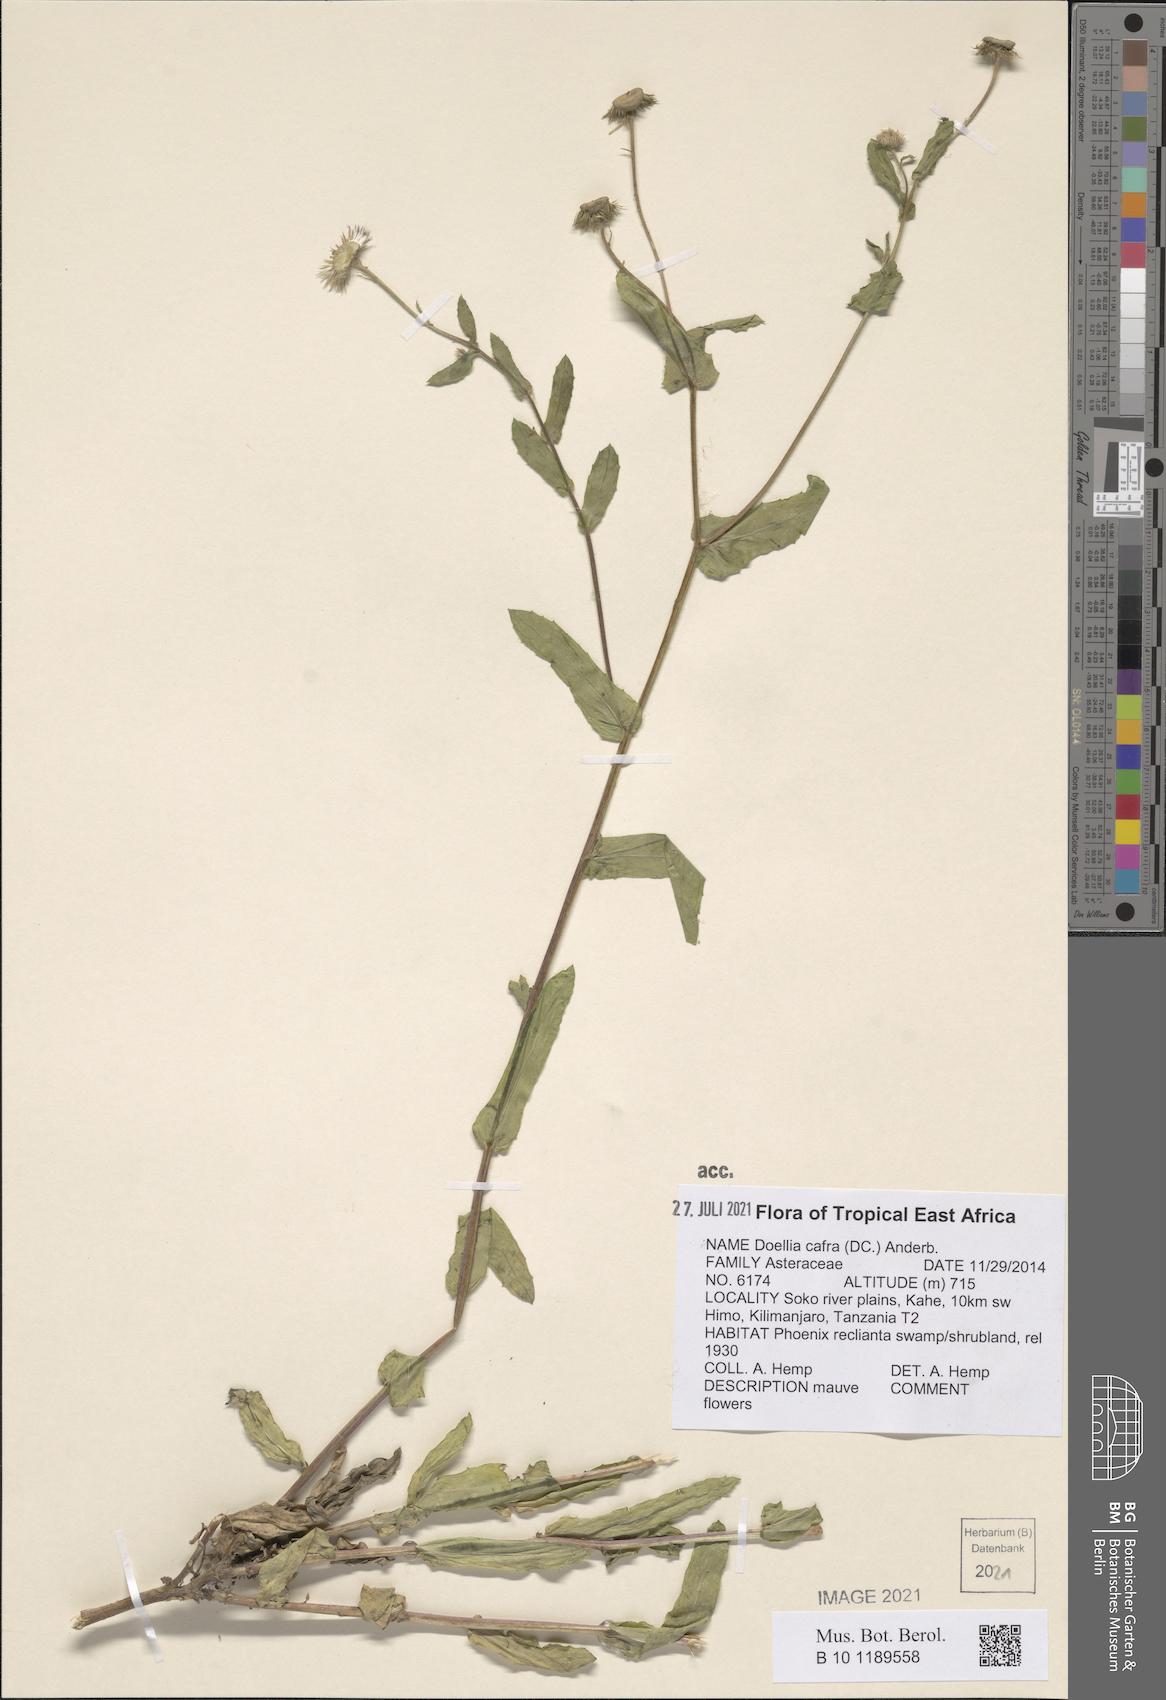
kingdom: Plantae
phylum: Tracheophyta
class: Magnoliopsida
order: Asterales
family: Asteraceae
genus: Doellia
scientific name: Doellia cafra
